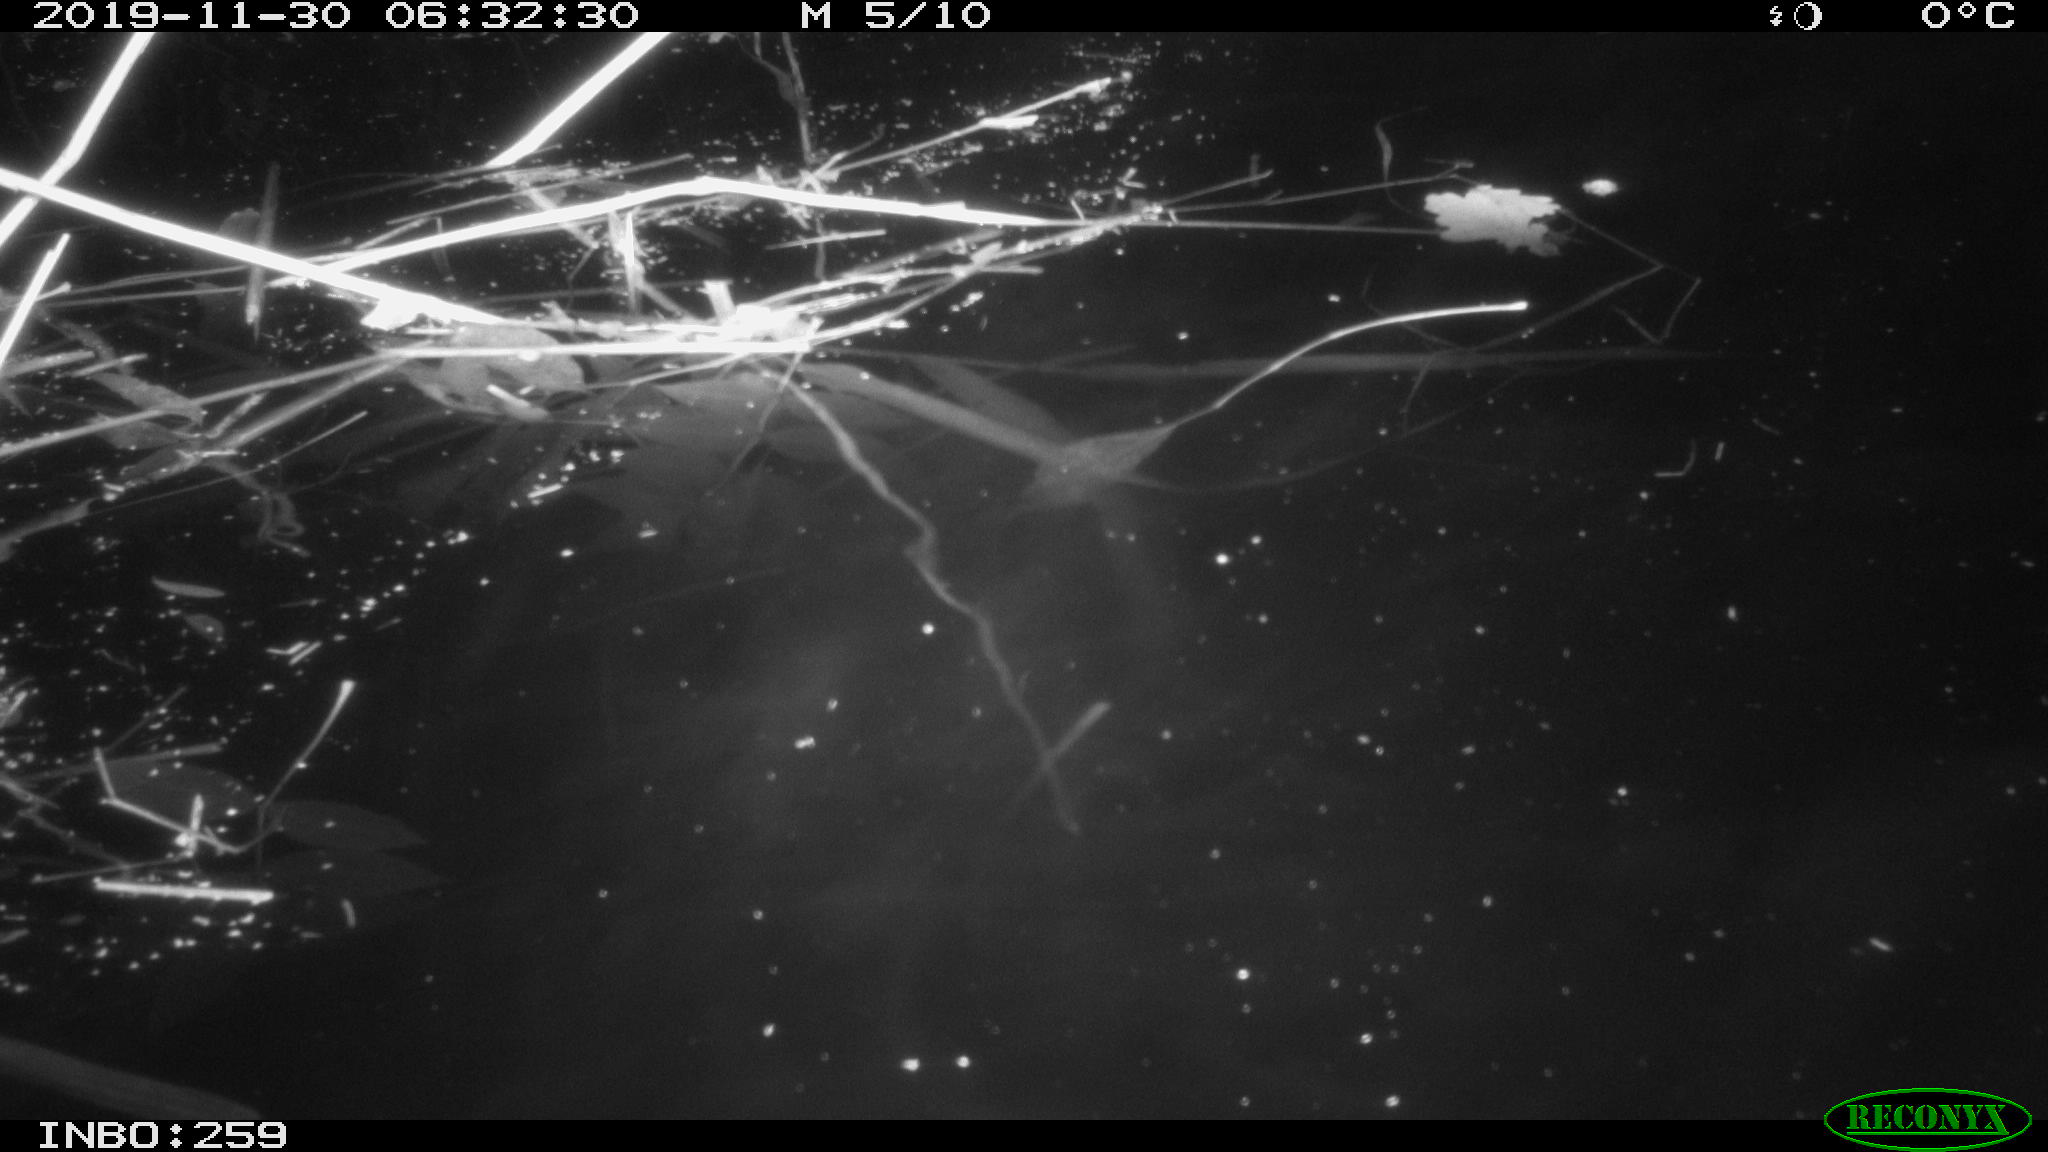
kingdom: Animalia
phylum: Chordata
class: Mammalia
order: Rodentia
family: Muridae
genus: Rattus
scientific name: Rattus norvegicus
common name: Brown rat
